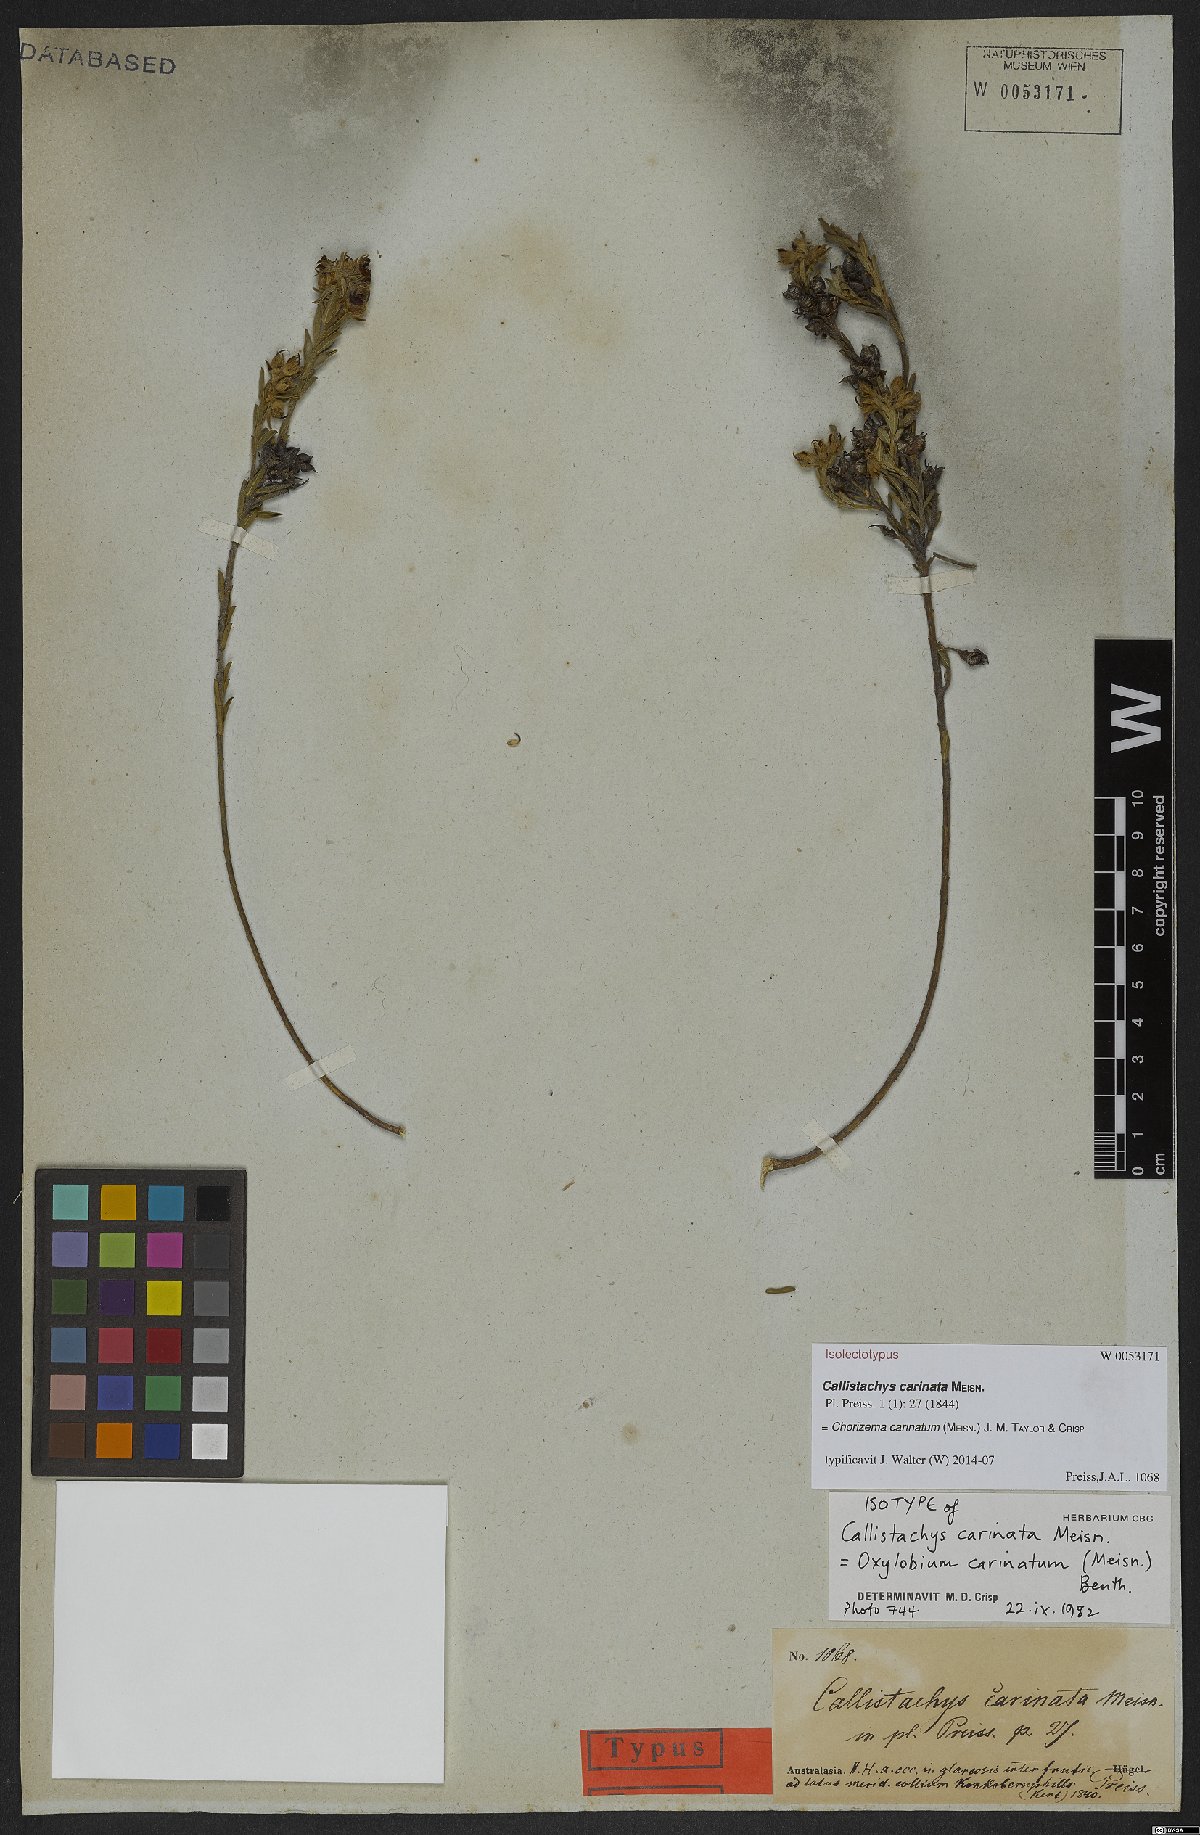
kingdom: Plantae
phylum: Tracheophyta
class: Magnoliopsida
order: Fabales
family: Fabaceae
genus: Chorizema
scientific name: Chorizema carinatum
